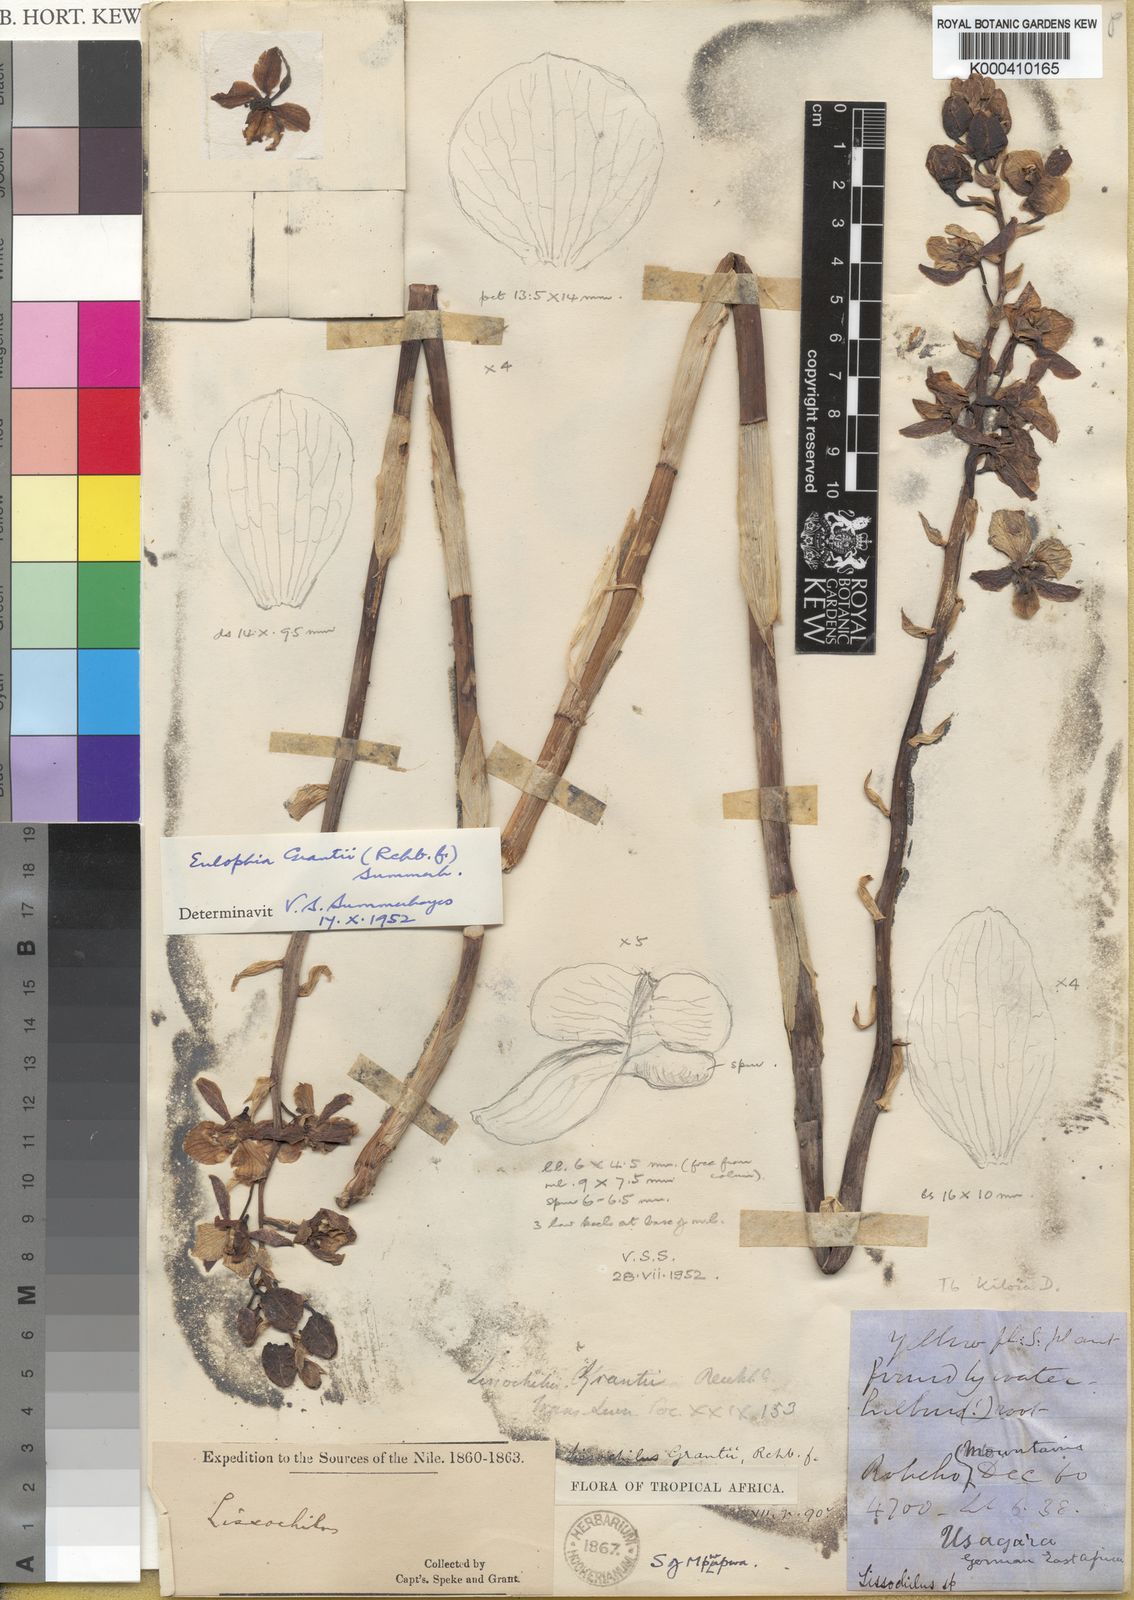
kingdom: Plantae
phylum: Tracheophyta
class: Liliopsida
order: Asparagales
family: Orchidaceae
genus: Eulophia
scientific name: Eulophia schweinfurthii
